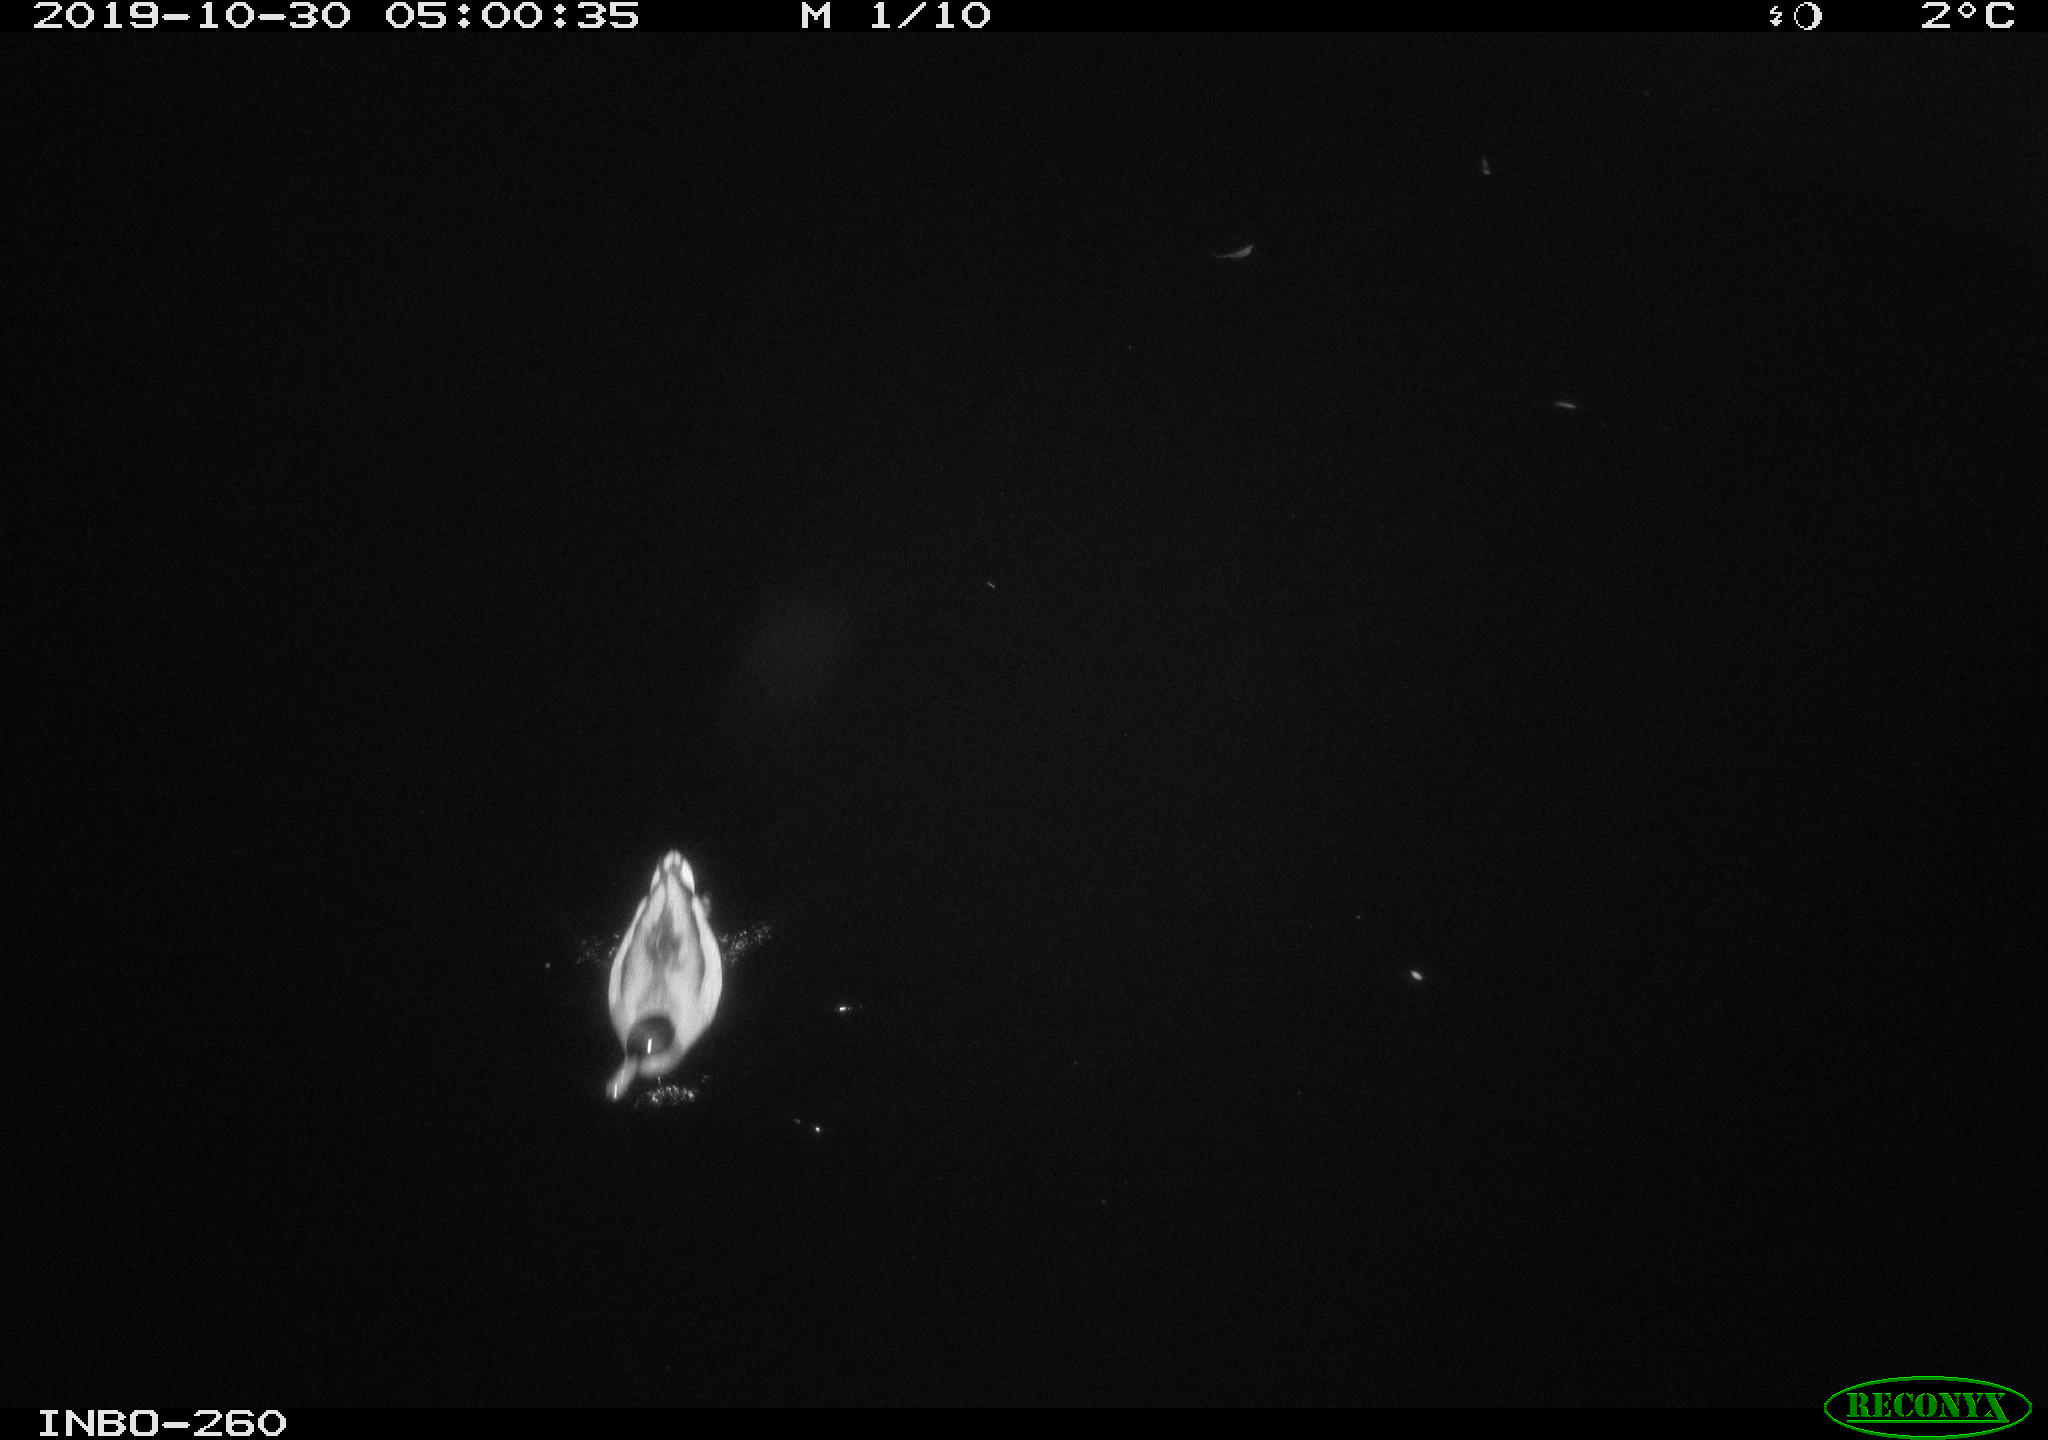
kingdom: Animalia
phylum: Chordata
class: Aves
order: Anseriformes
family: Anatidae
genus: Anas
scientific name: Anas platyrhynchos
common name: Mallard
